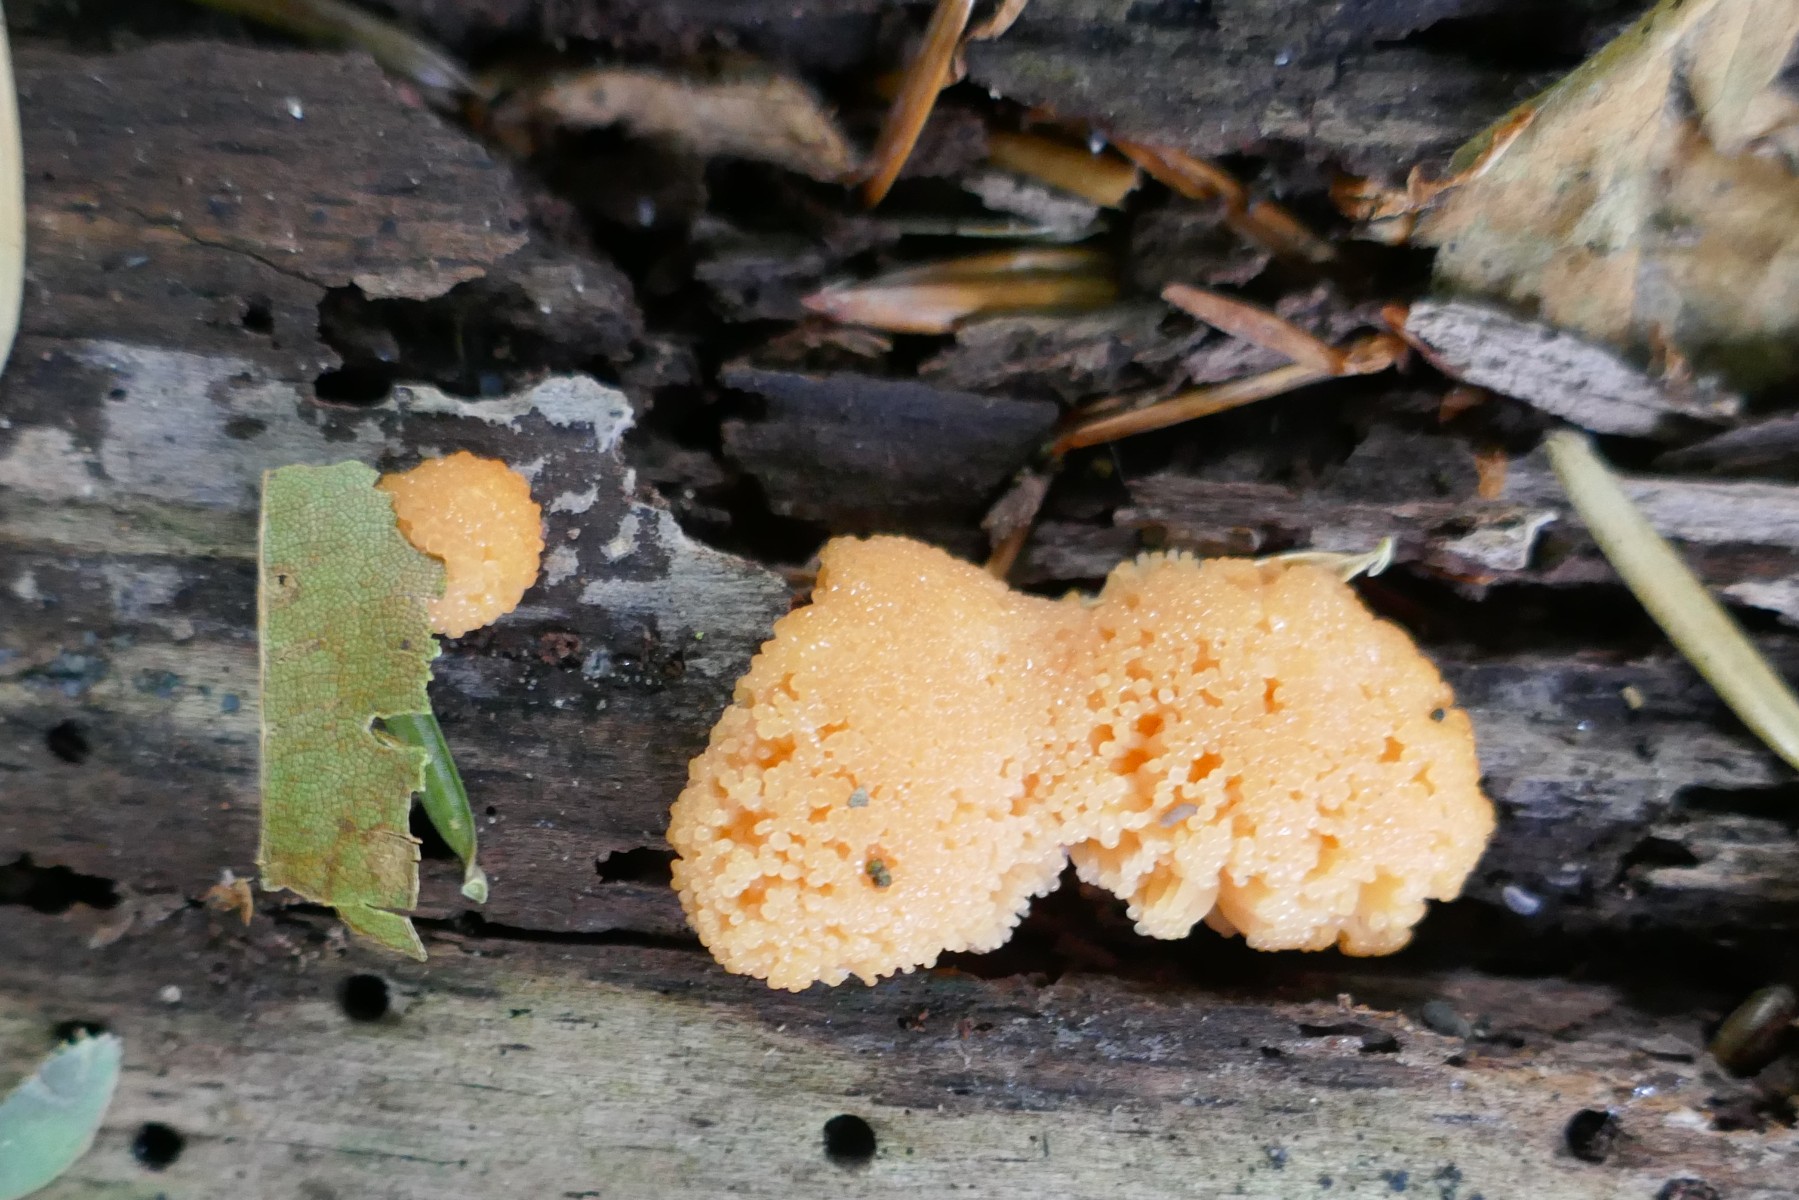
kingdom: Protozoa
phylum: Mycetozoa
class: Myxomycetes
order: Cribrariales
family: Tubiferaceae
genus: Tubifera
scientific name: Tubifera ferruginosa
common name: kanel-støvrør
